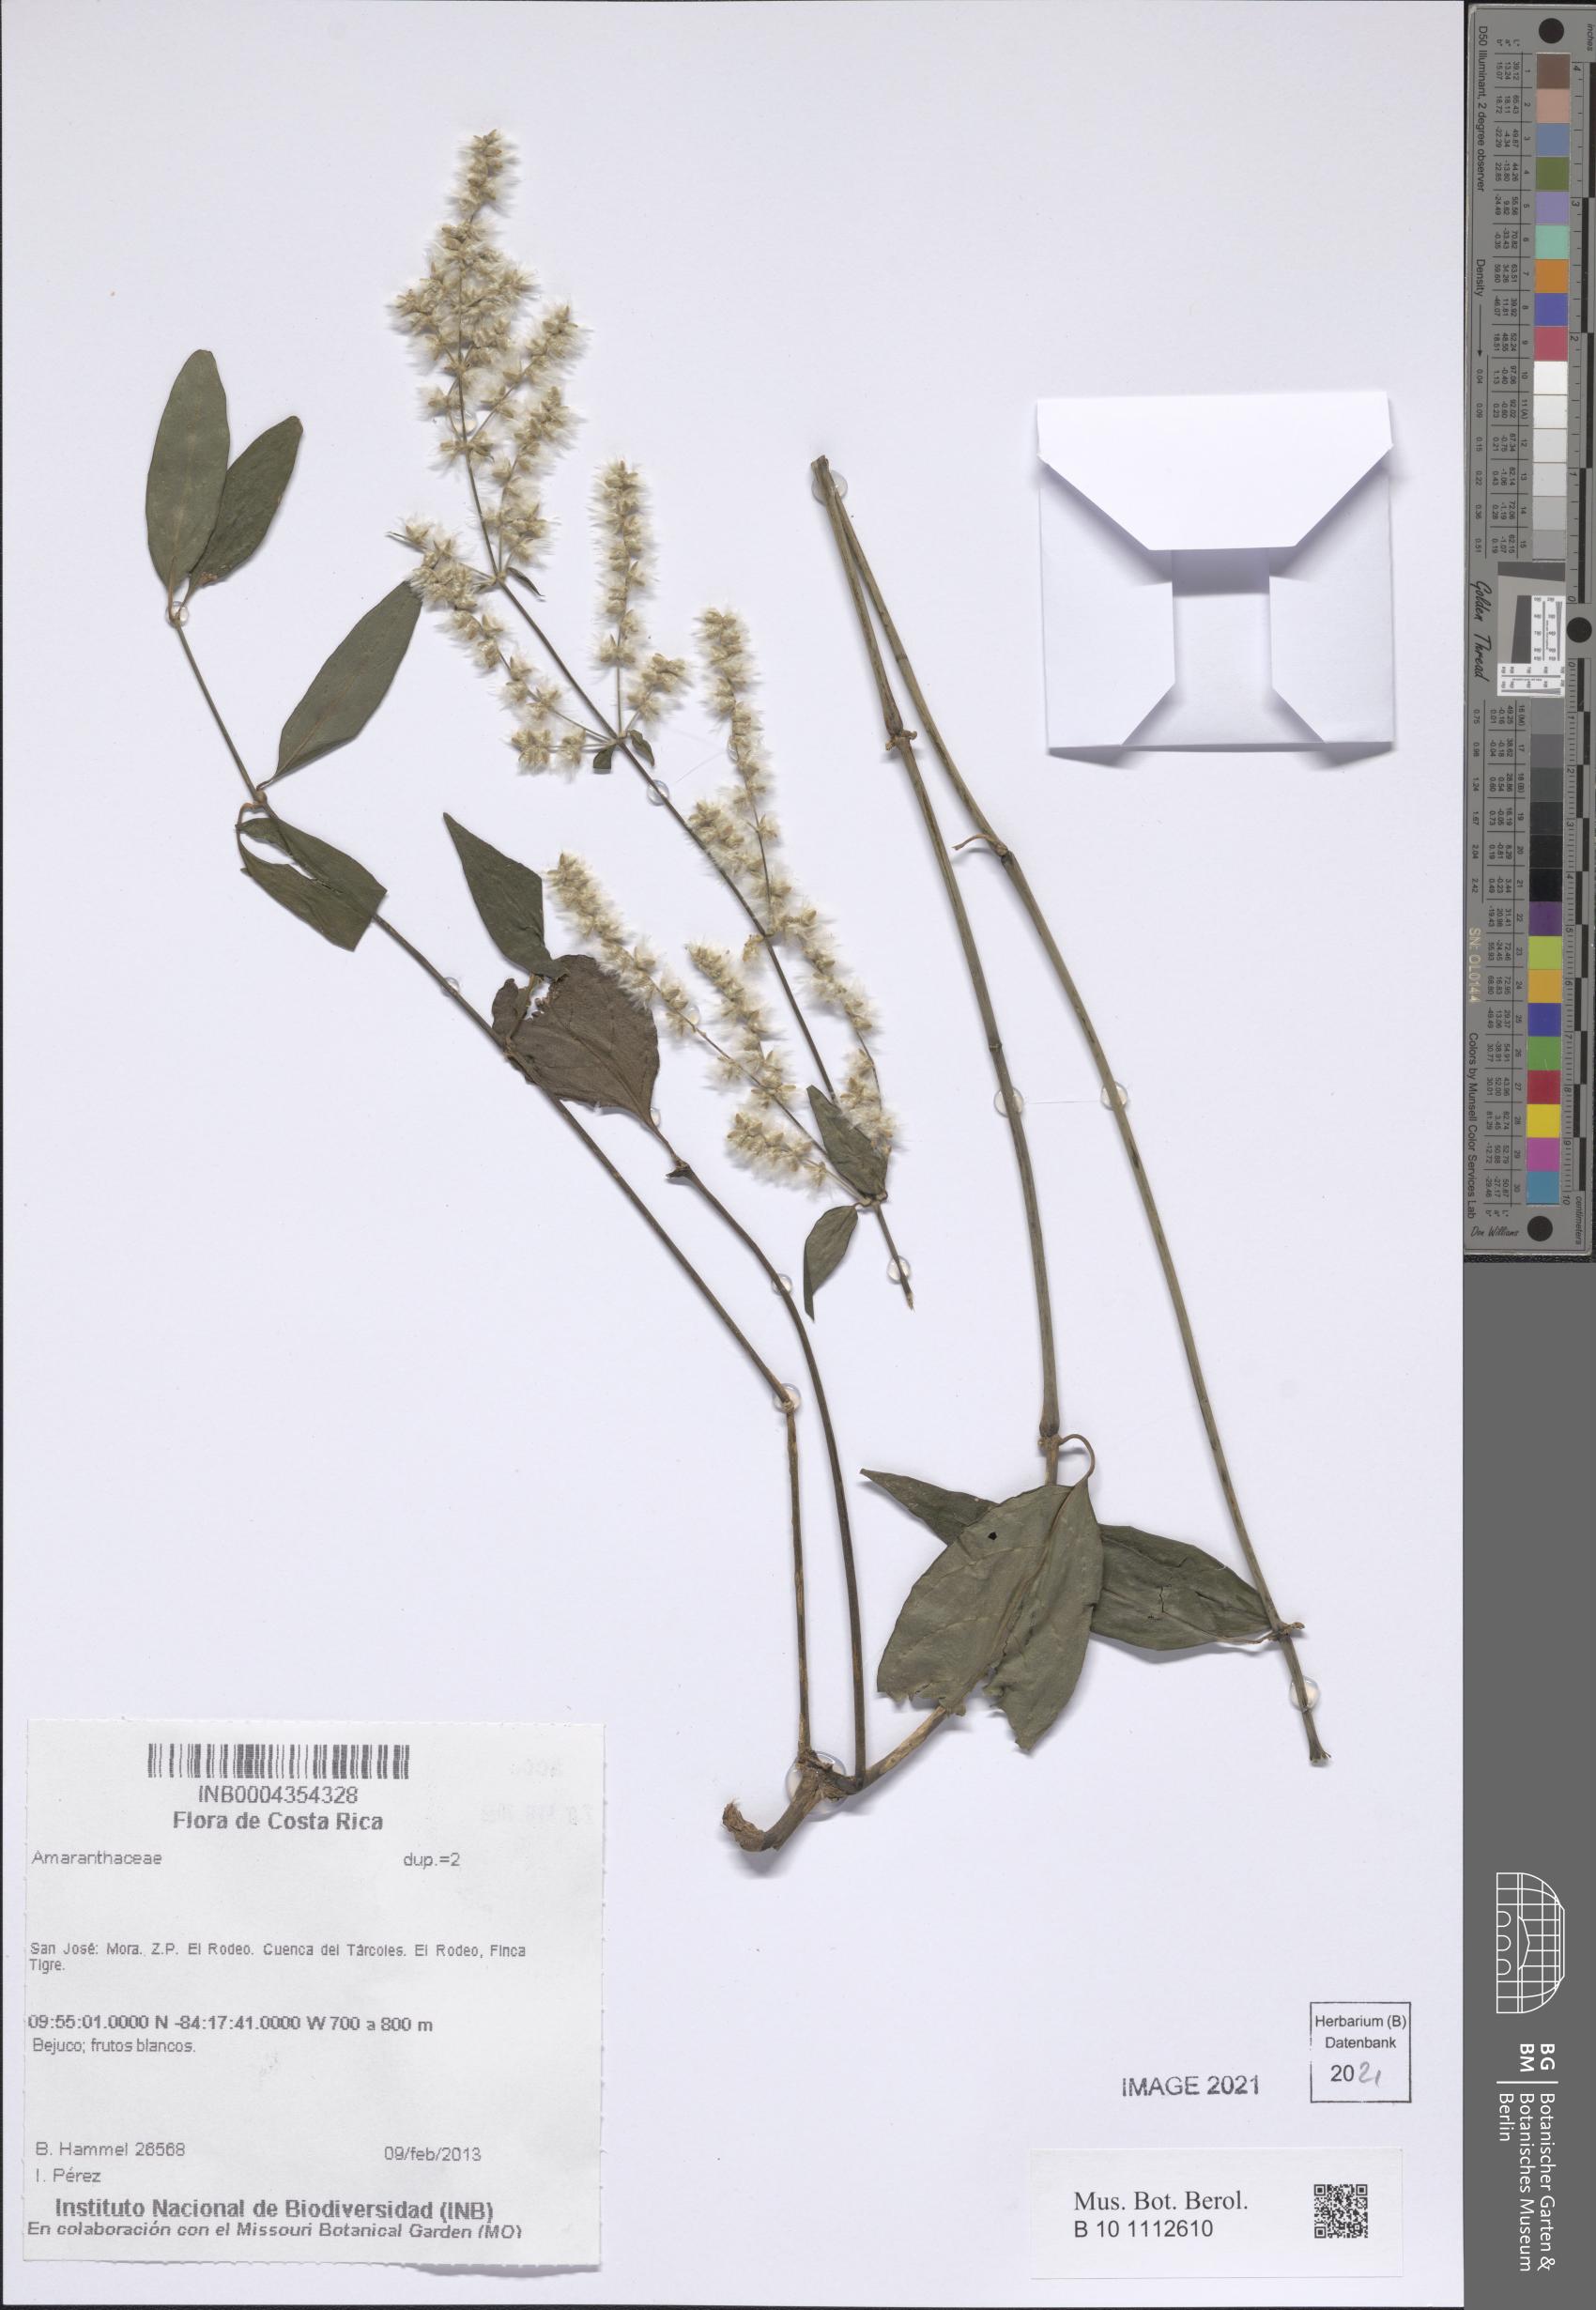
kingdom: Plantae
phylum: Tracheophyta
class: Magnoliopsida
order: Caryophyllales
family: Amaranthaceae
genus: Hebanthe
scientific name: Hebanthe grandiflora
